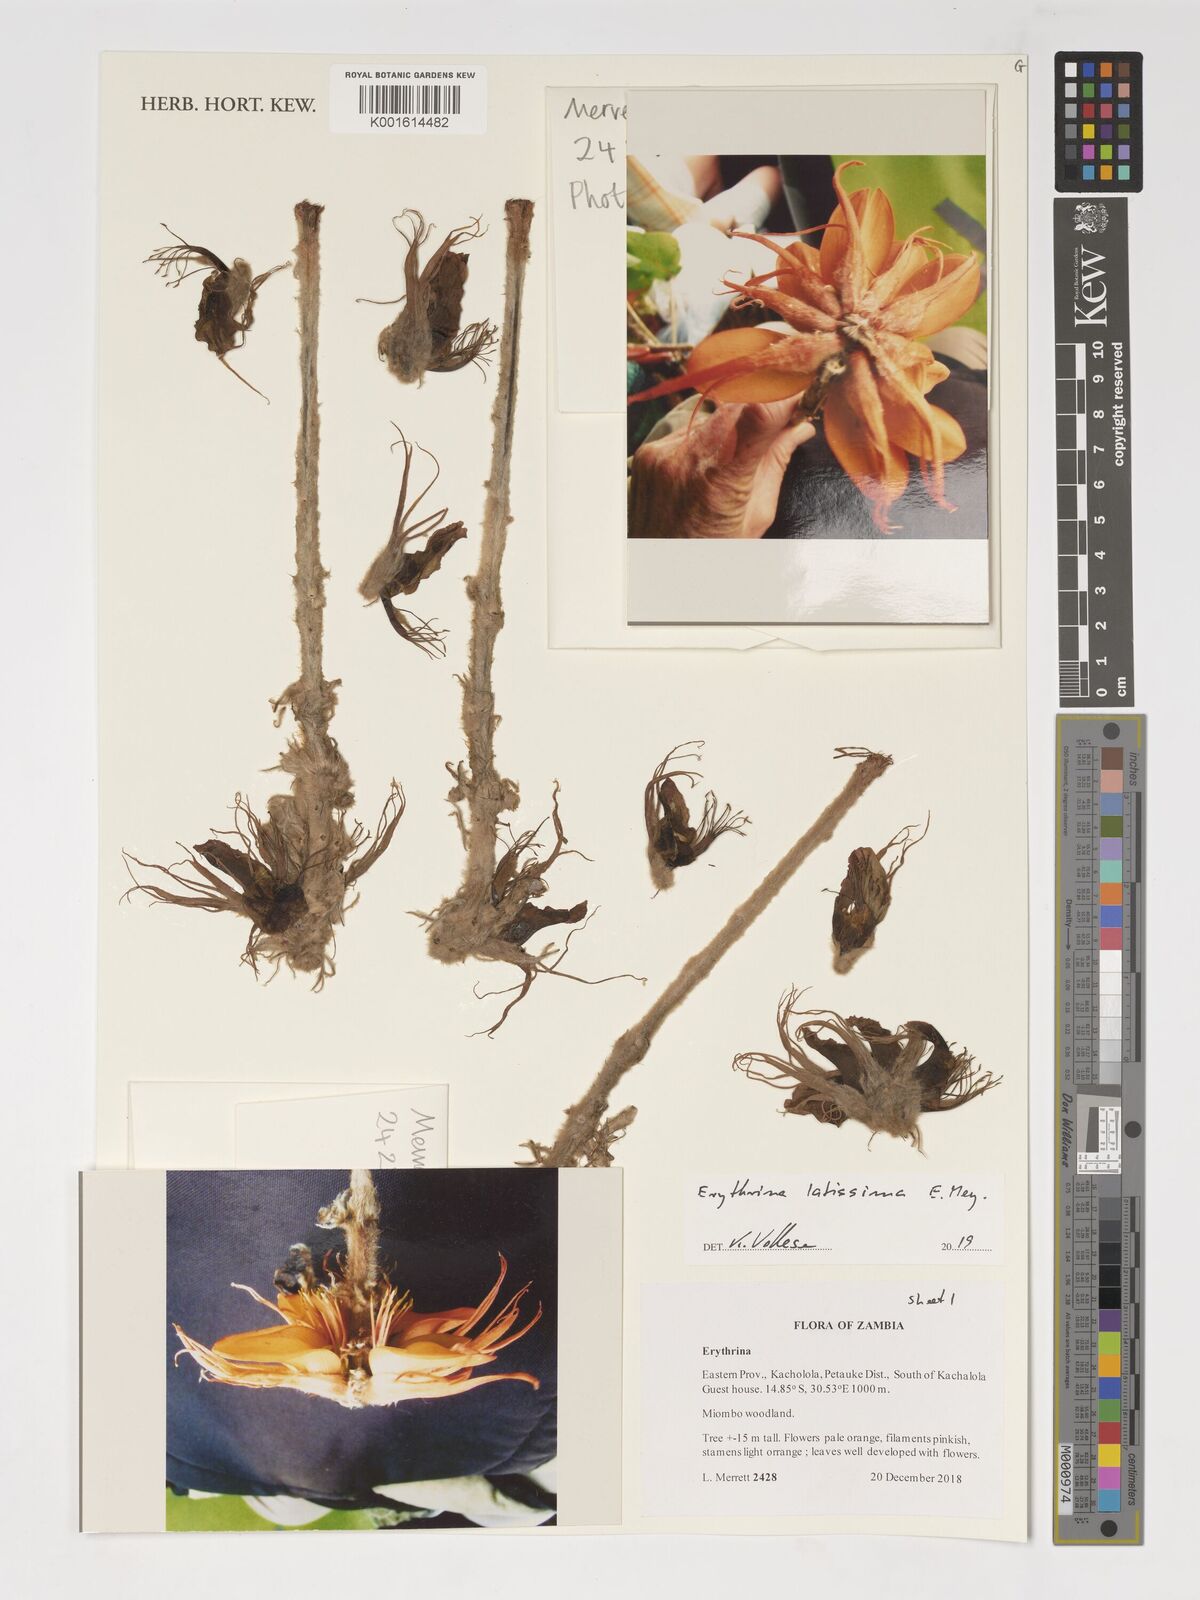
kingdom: Plantae
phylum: Tracheophyta
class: Magnoliopsida
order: Fabales
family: Fabaceae
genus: Erythrina
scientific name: Erythrina latissima
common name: Broad-leaved coral tree
